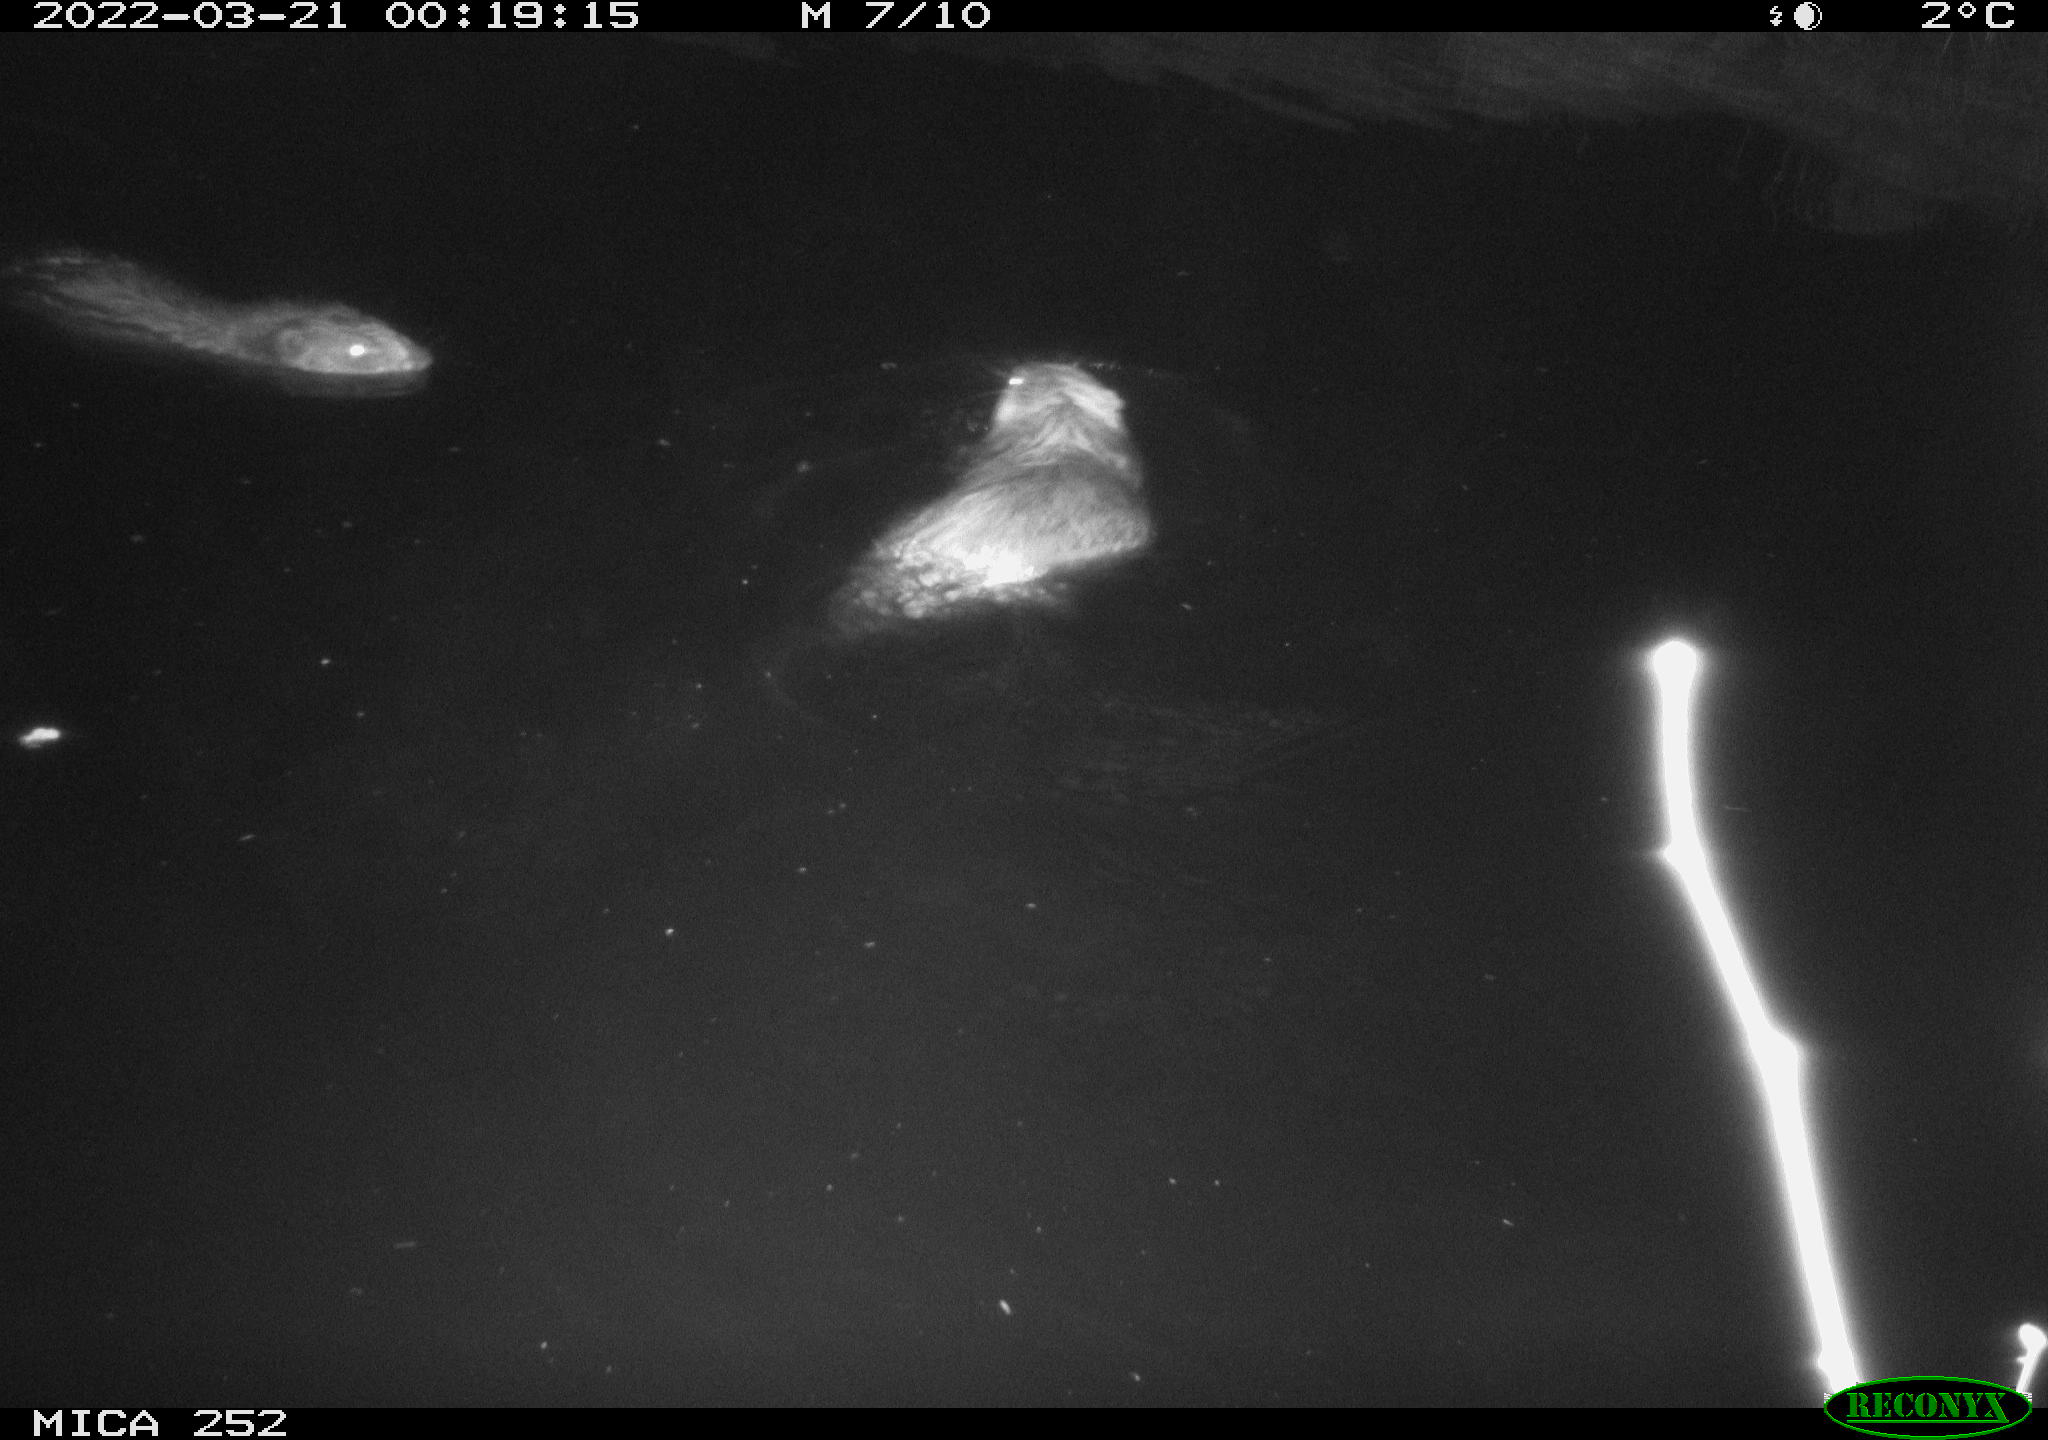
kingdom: Animalia
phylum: Chordata
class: Mammalia
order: Rodentia
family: Castoridae
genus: Castor
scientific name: Castor fiber
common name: Eurasian beaver
